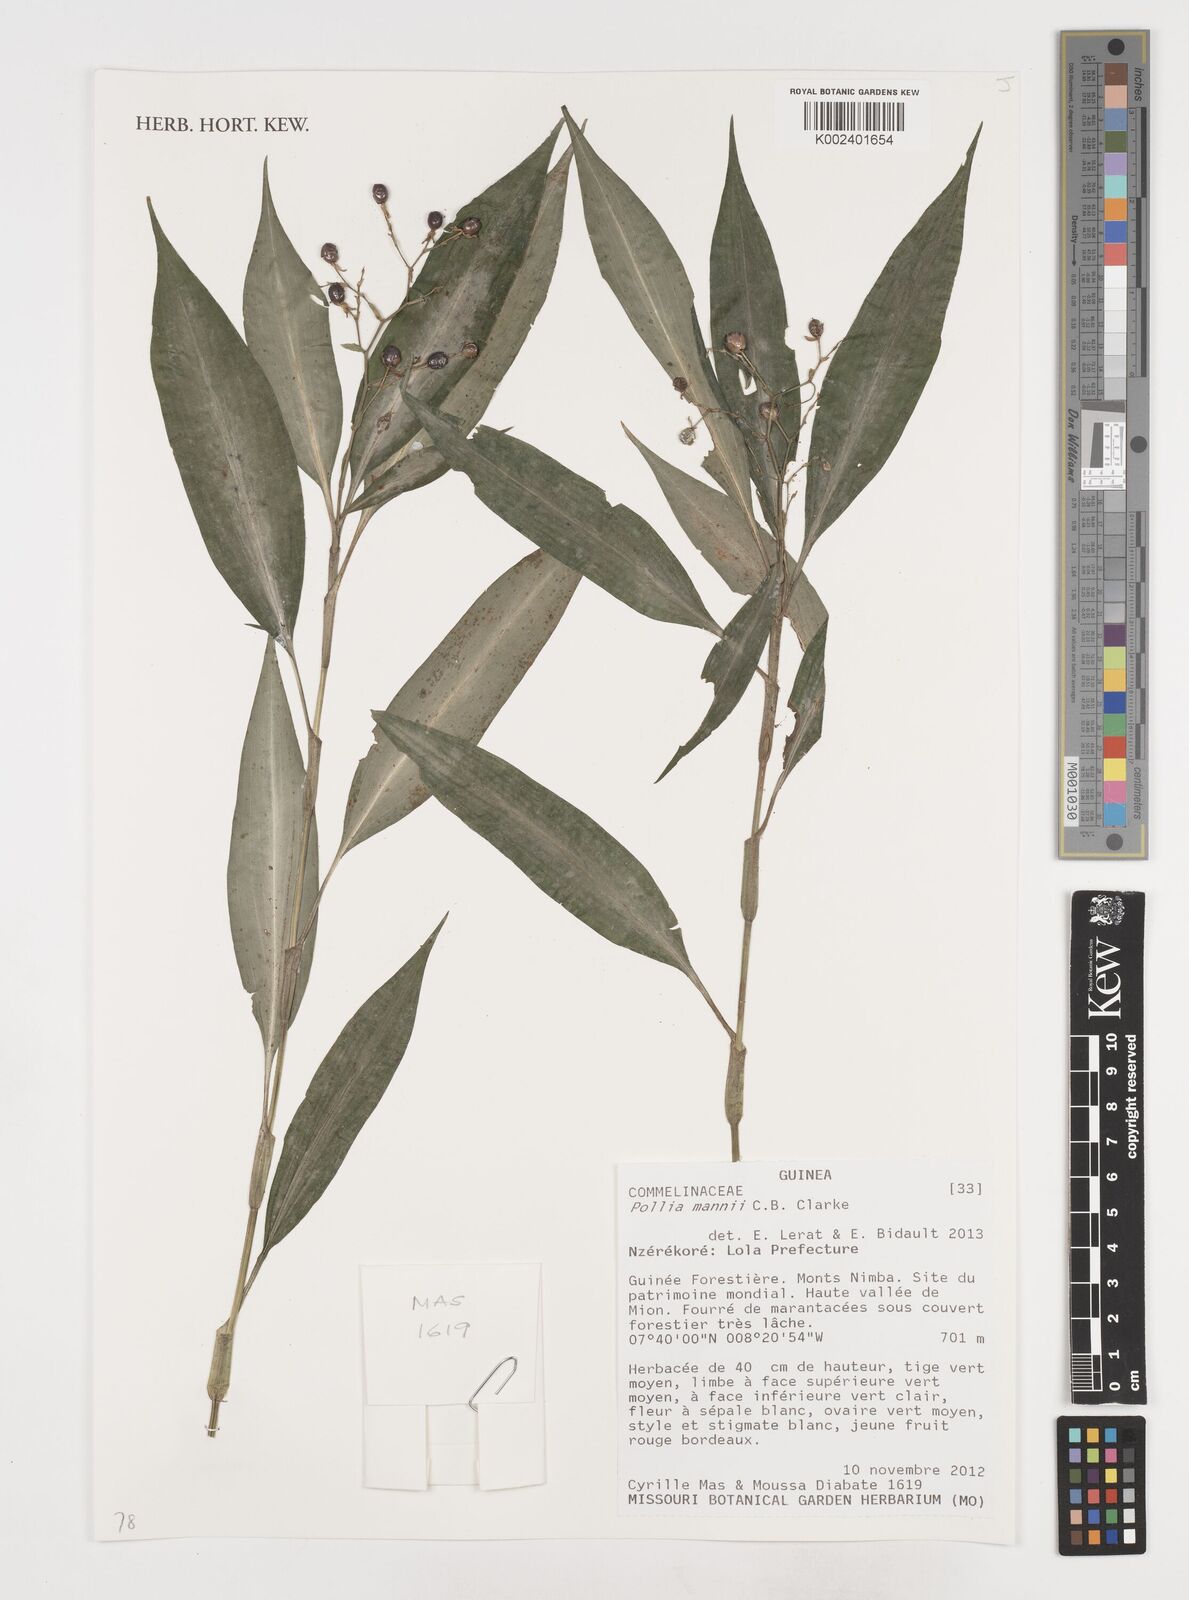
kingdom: Plantae
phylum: Tracheophyta
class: Liliopsida
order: Commelinales
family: Commelinaceae
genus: Pollia
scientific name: Pollia mannii
